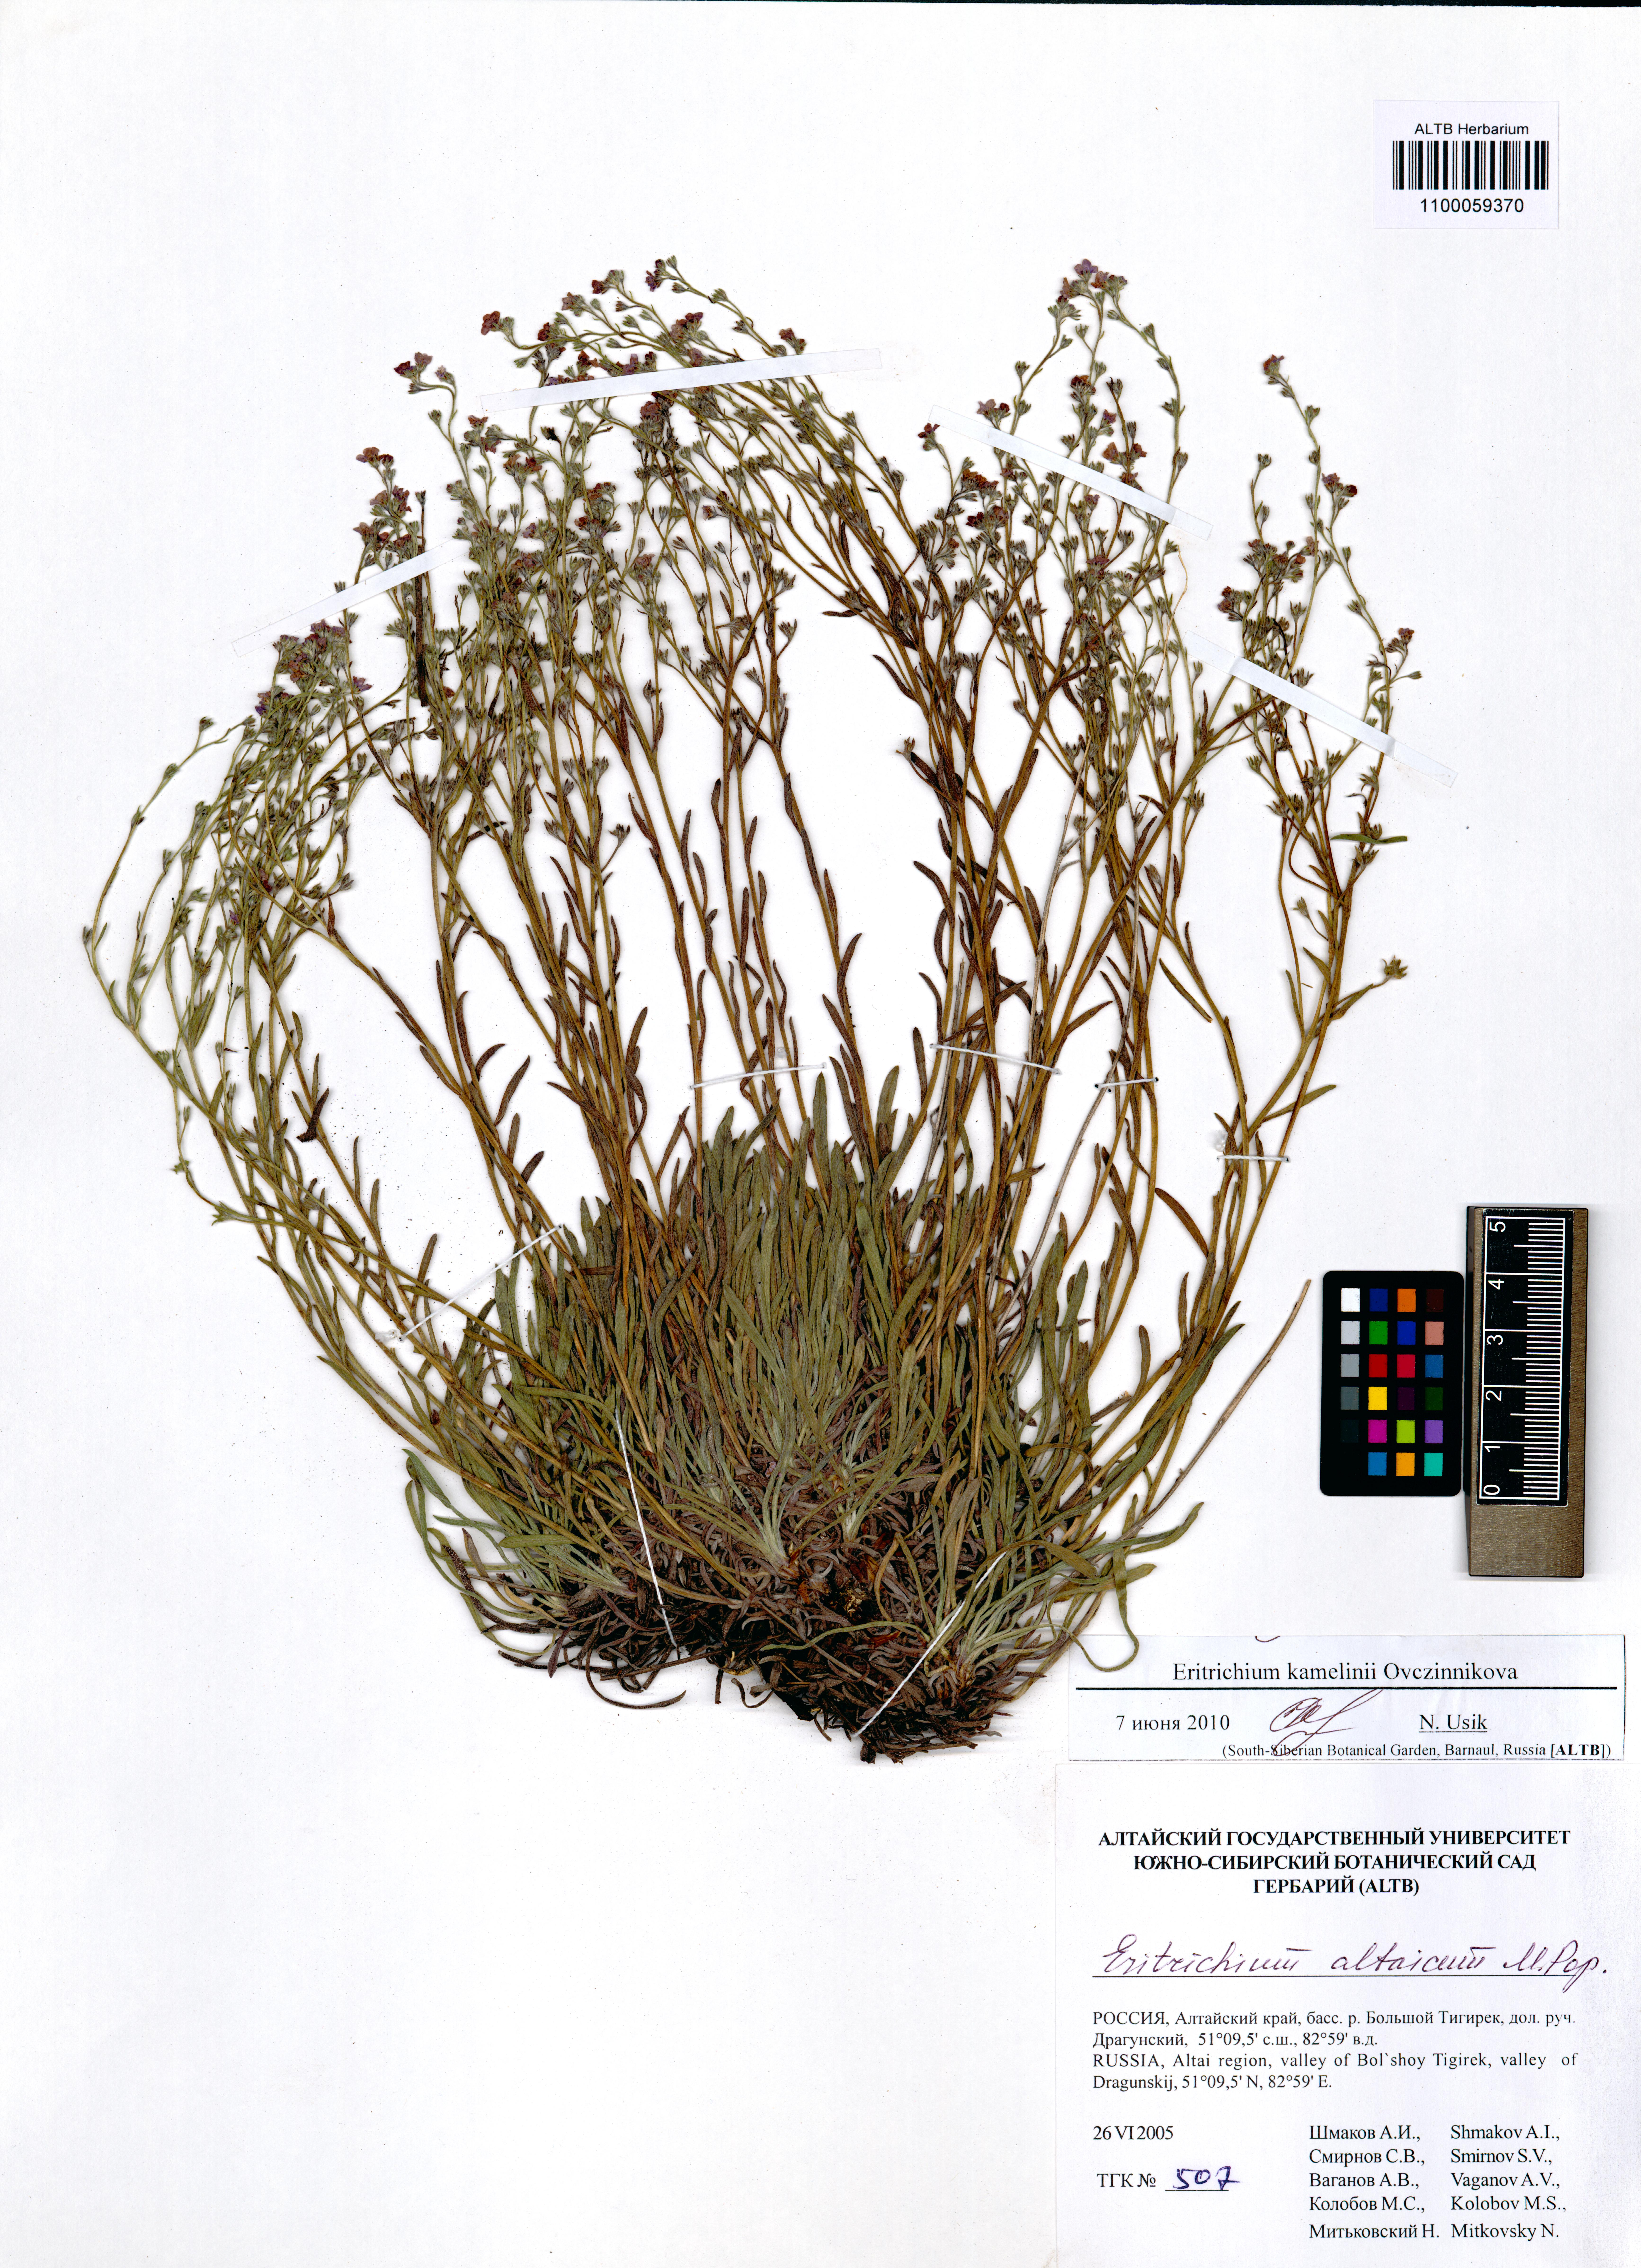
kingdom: Plantae
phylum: Tracheophyta
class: Magnoliopsida
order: Boraginales
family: Boraginaceae
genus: Eritrichium
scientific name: Eritrichium kamelinii
